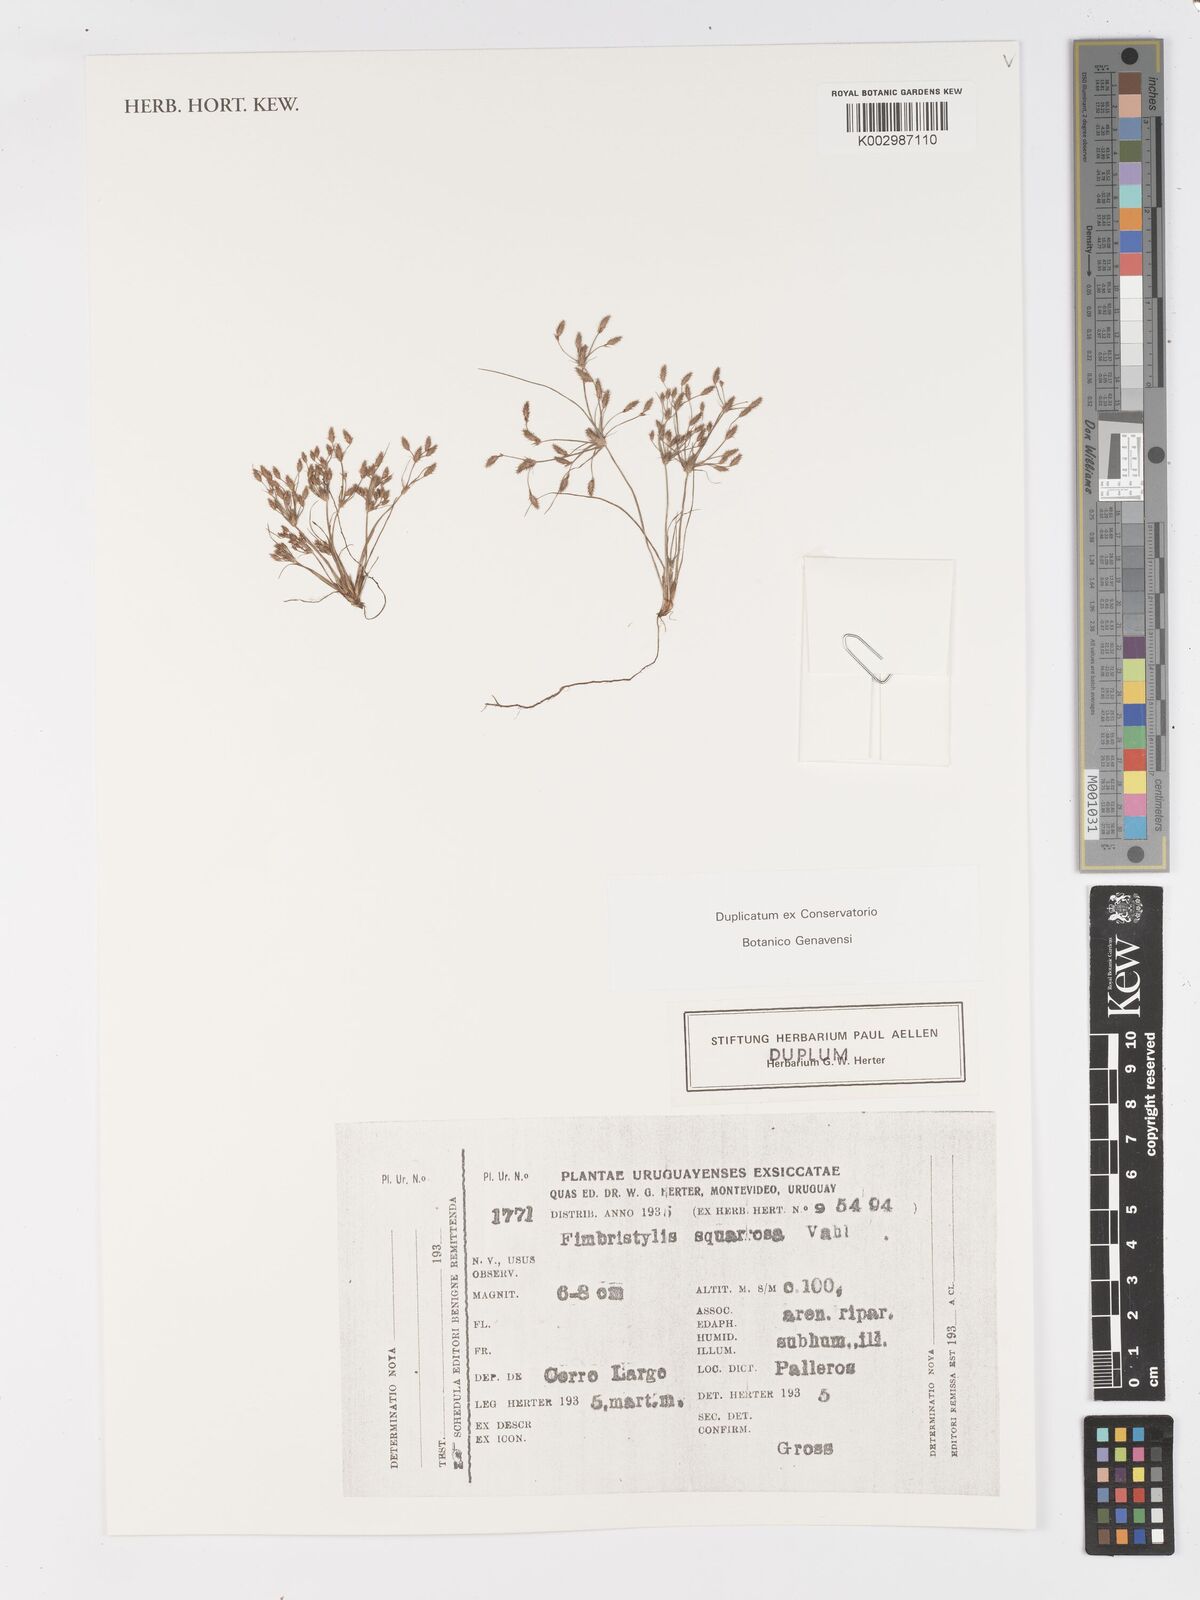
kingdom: Plantae
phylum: Tracheophyta
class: Liliopsida
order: Poales
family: Cyperaceae
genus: Fimbristylis
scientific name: Fimbristylis squarrosa
